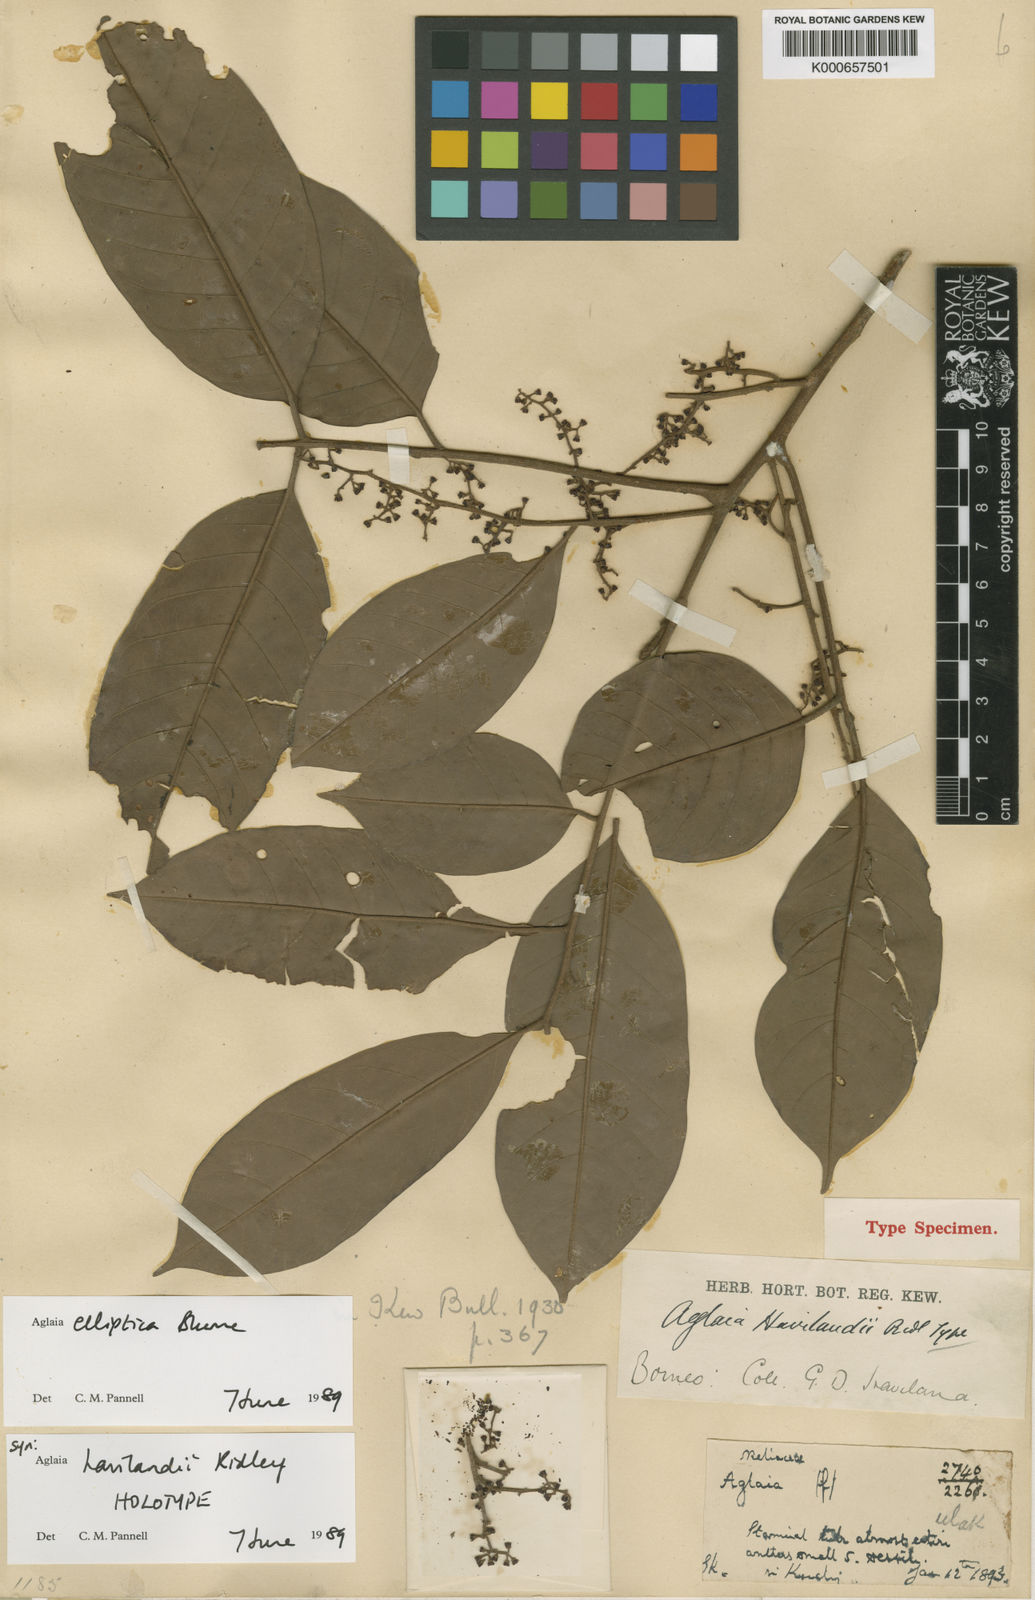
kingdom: Plantae
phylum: Tracheophyta
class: Magnoliopsida
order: Sapindales
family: Meliaceae
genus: Aglaia
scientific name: Aglaia elliptica
